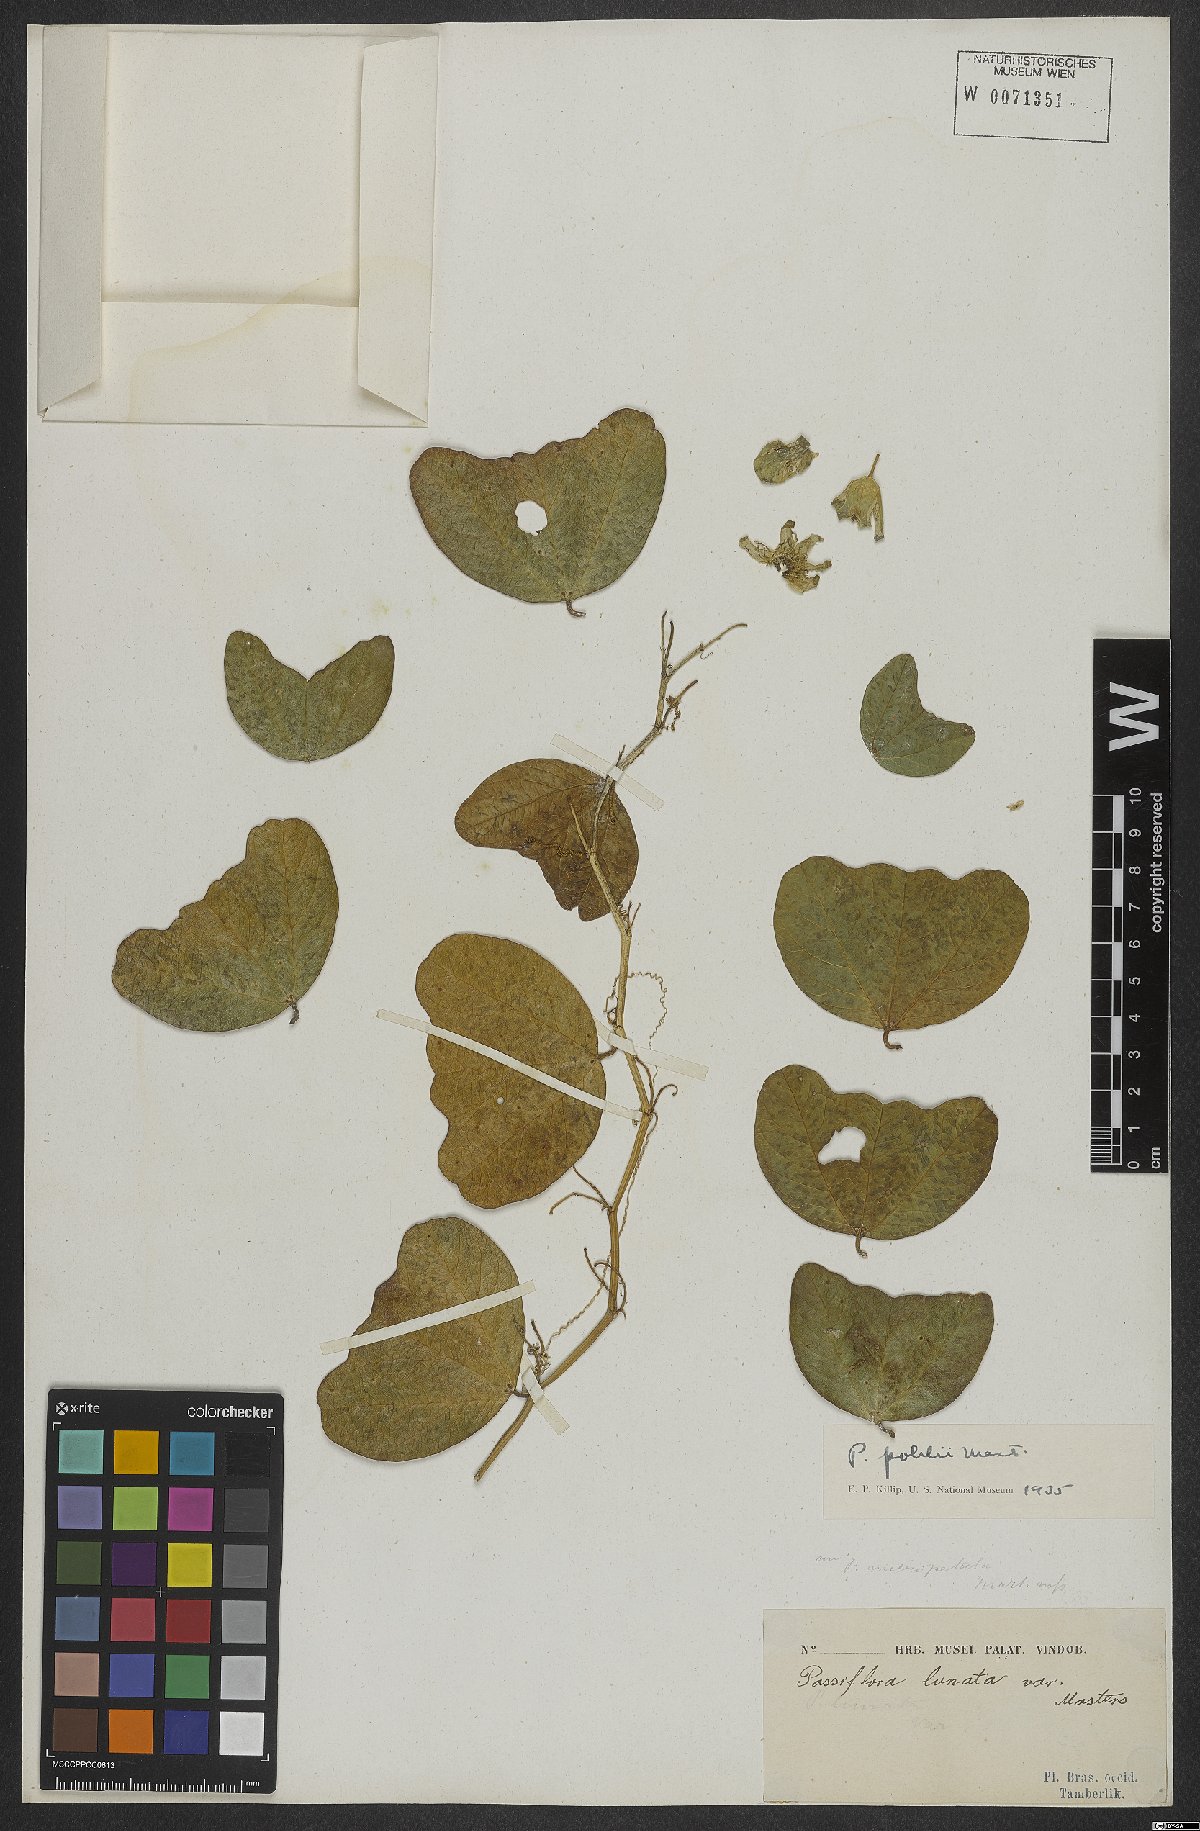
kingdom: Plantae
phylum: Tracheophyta
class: Magnoliopsida
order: Malpighiales
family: Passifloraceae
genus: Passiflora
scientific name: Passiflora pohlii
